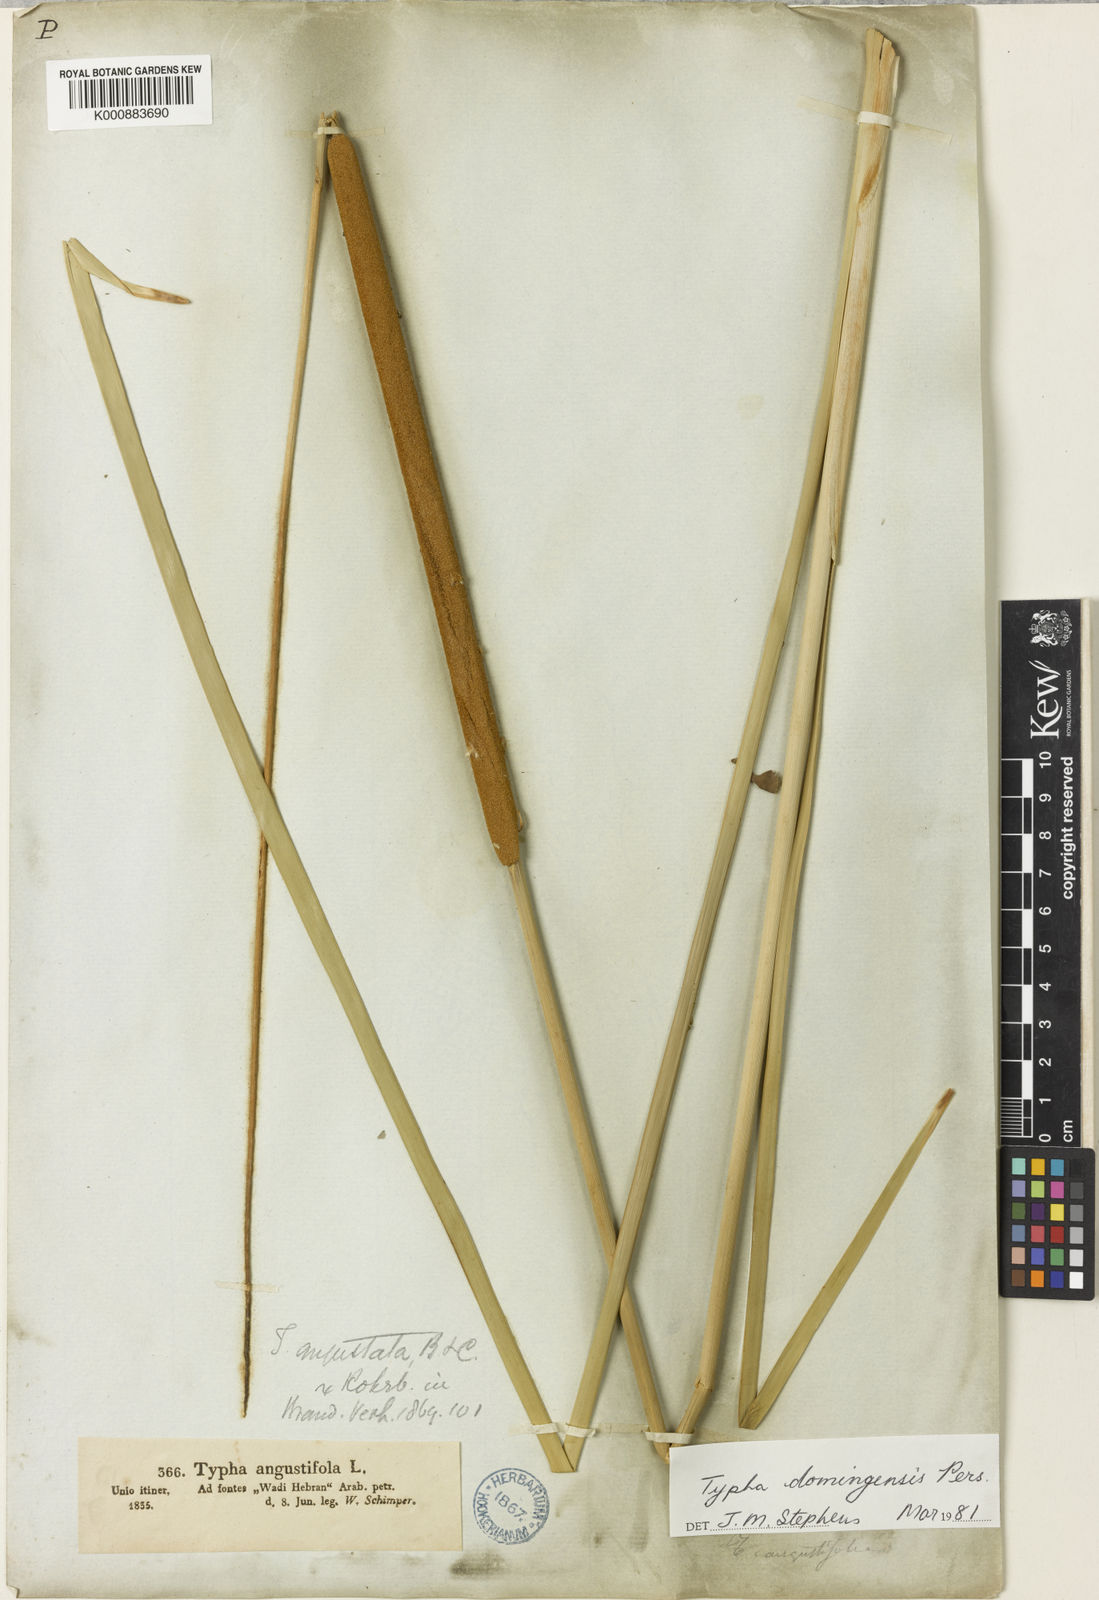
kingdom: Plantae
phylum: Tracheophyta
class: Liliopsida
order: Poales
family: Typhaceae
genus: Typha
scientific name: Typha domingensis
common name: Southern cattail
